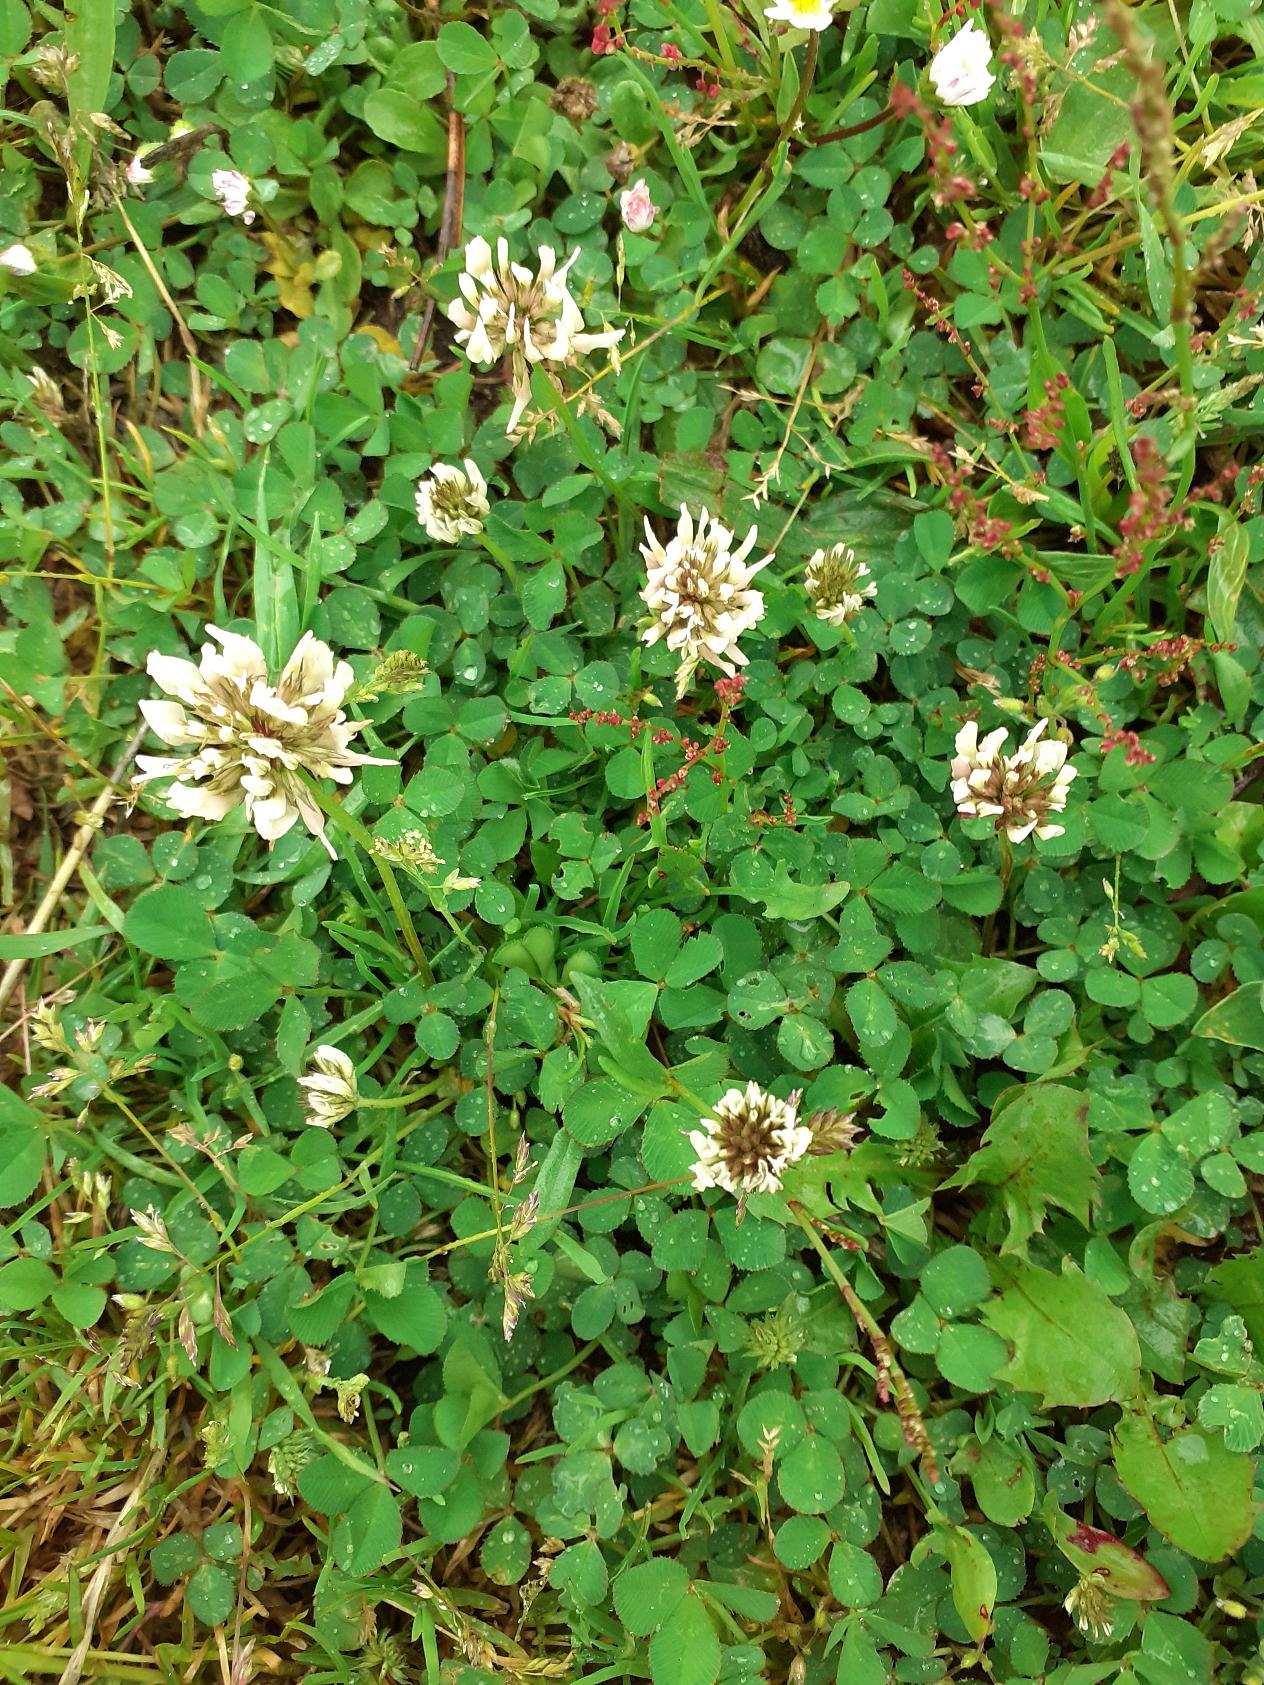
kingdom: Plantae
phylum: Tracheophyta
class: Magnoliopsida
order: Fabales
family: Fabaceae
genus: Trifolium
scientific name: Trifolium repens
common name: Hvid-kløver
